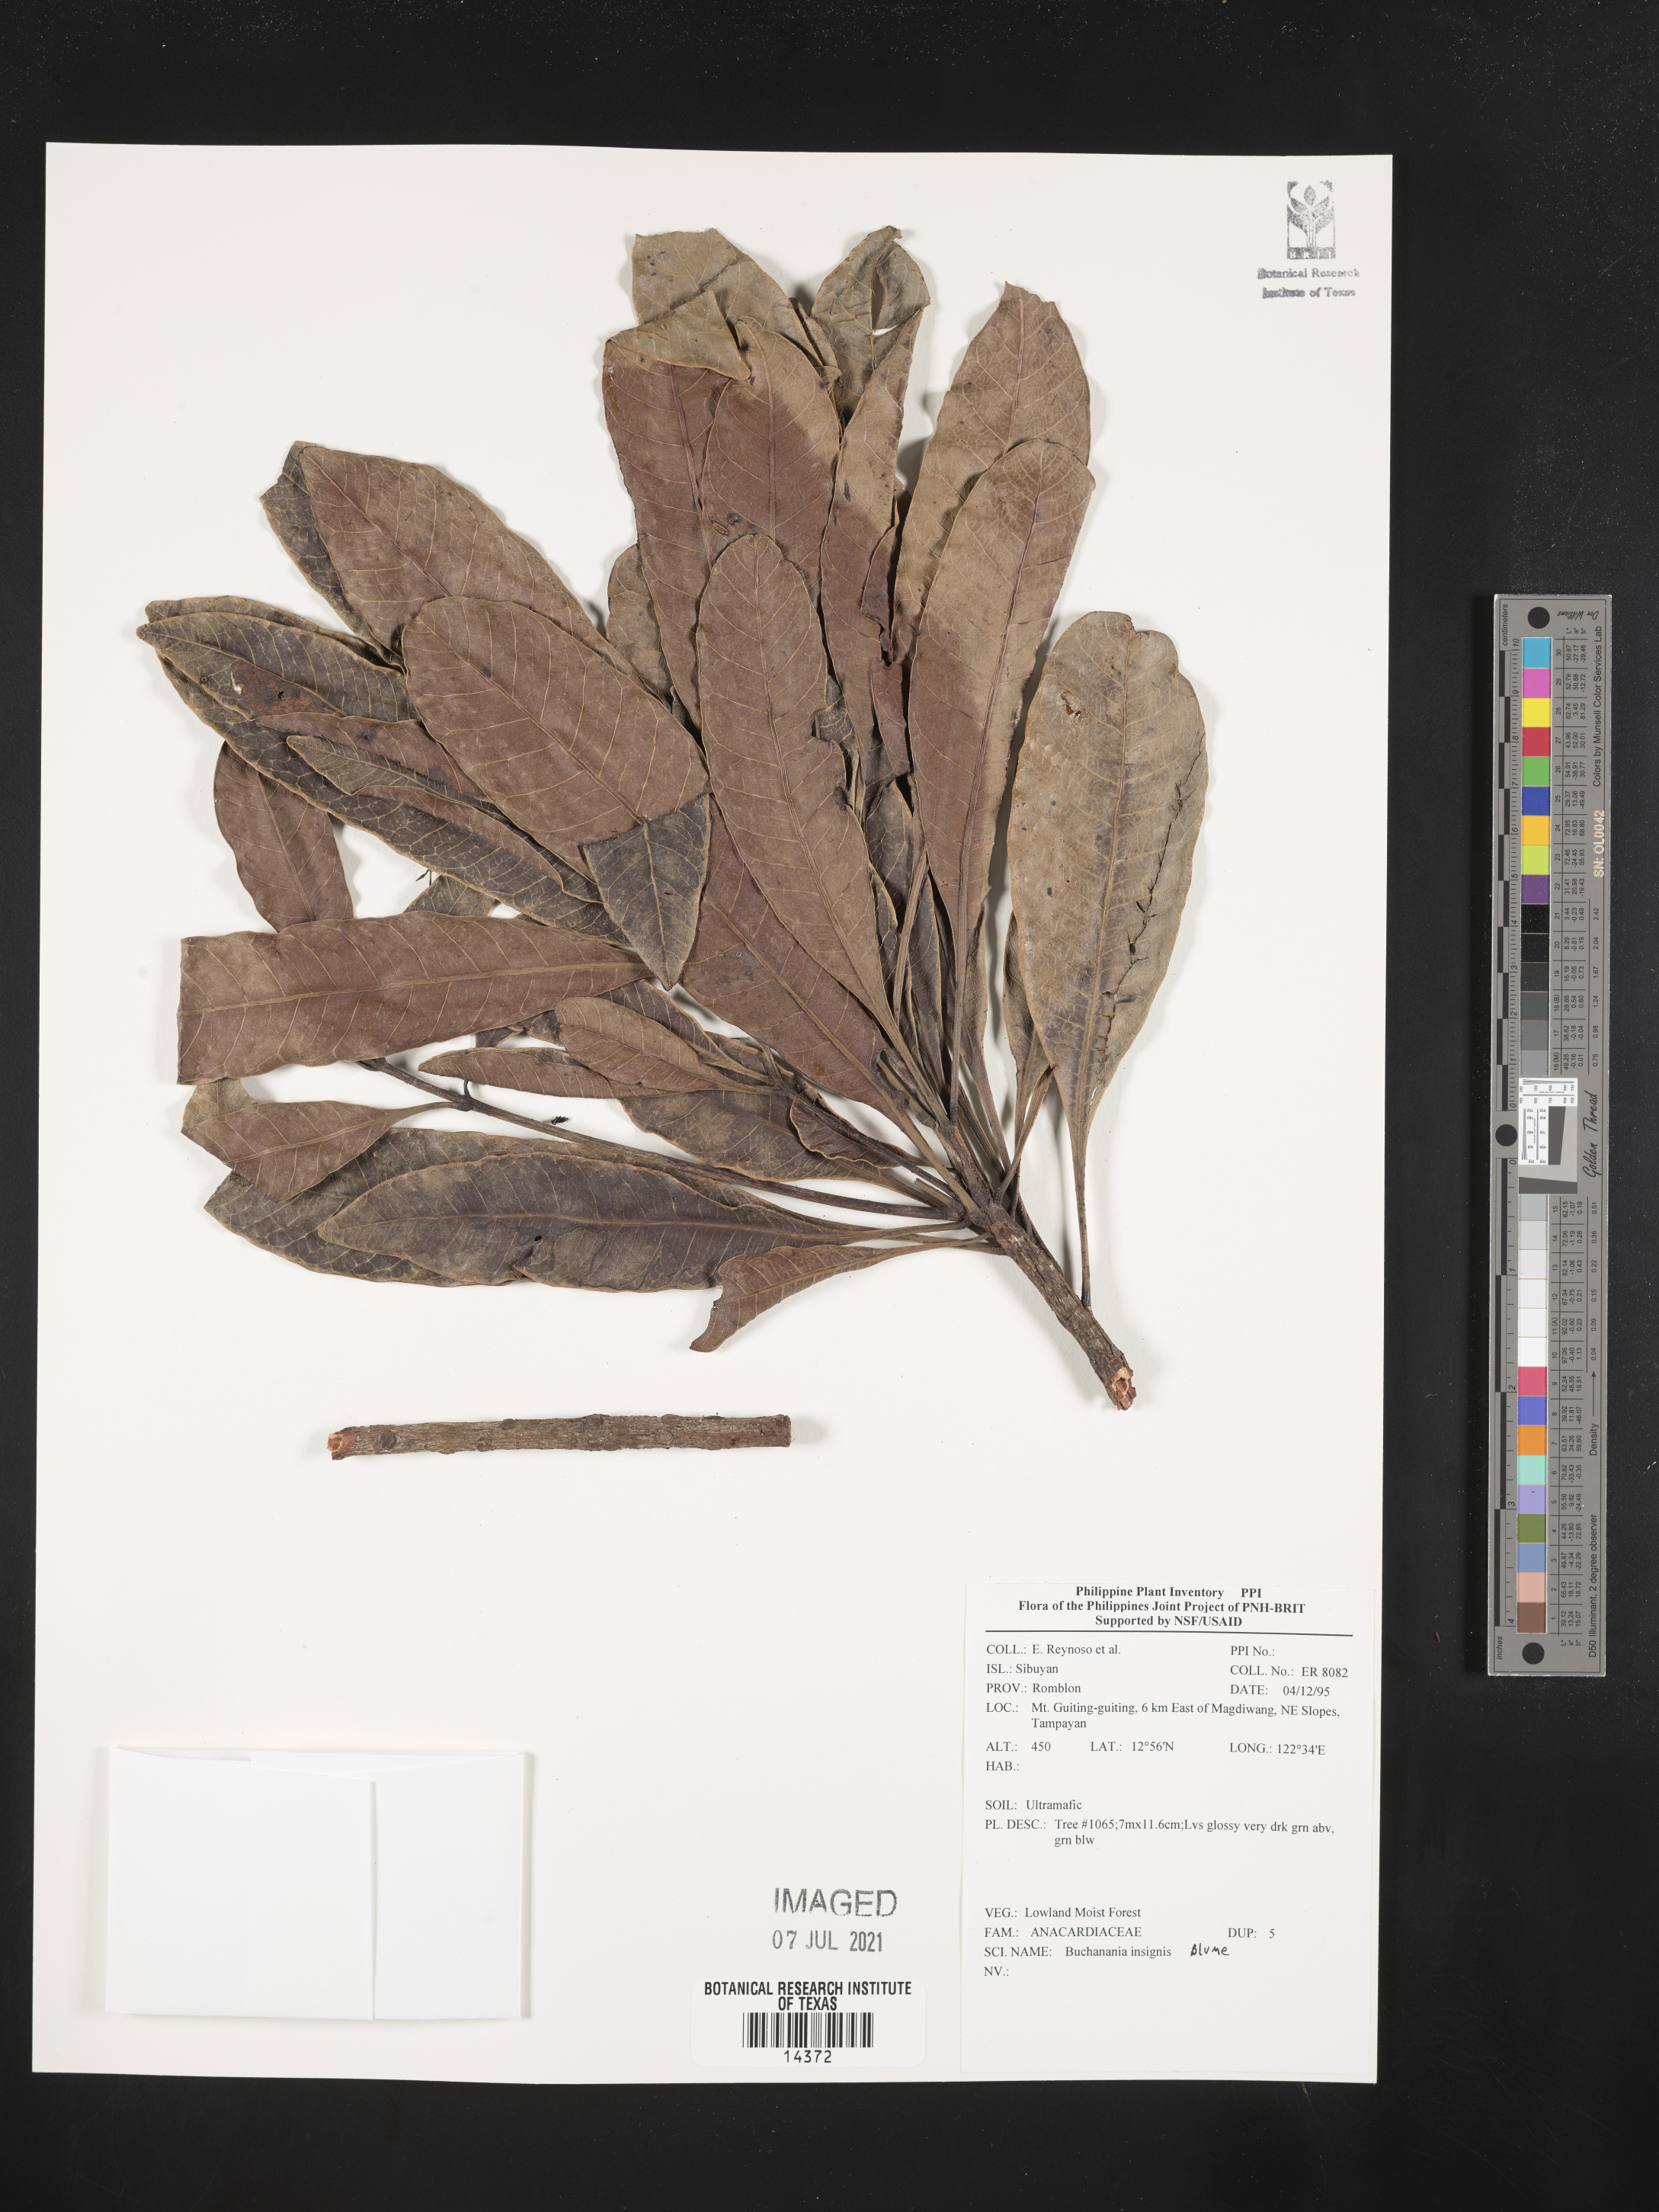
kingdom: Plantae
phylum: Tracheophyta
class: Magnoliopsida
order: Sapindales
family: Anacardiaceae
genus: Buchanania
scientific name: Buchanania insignis
